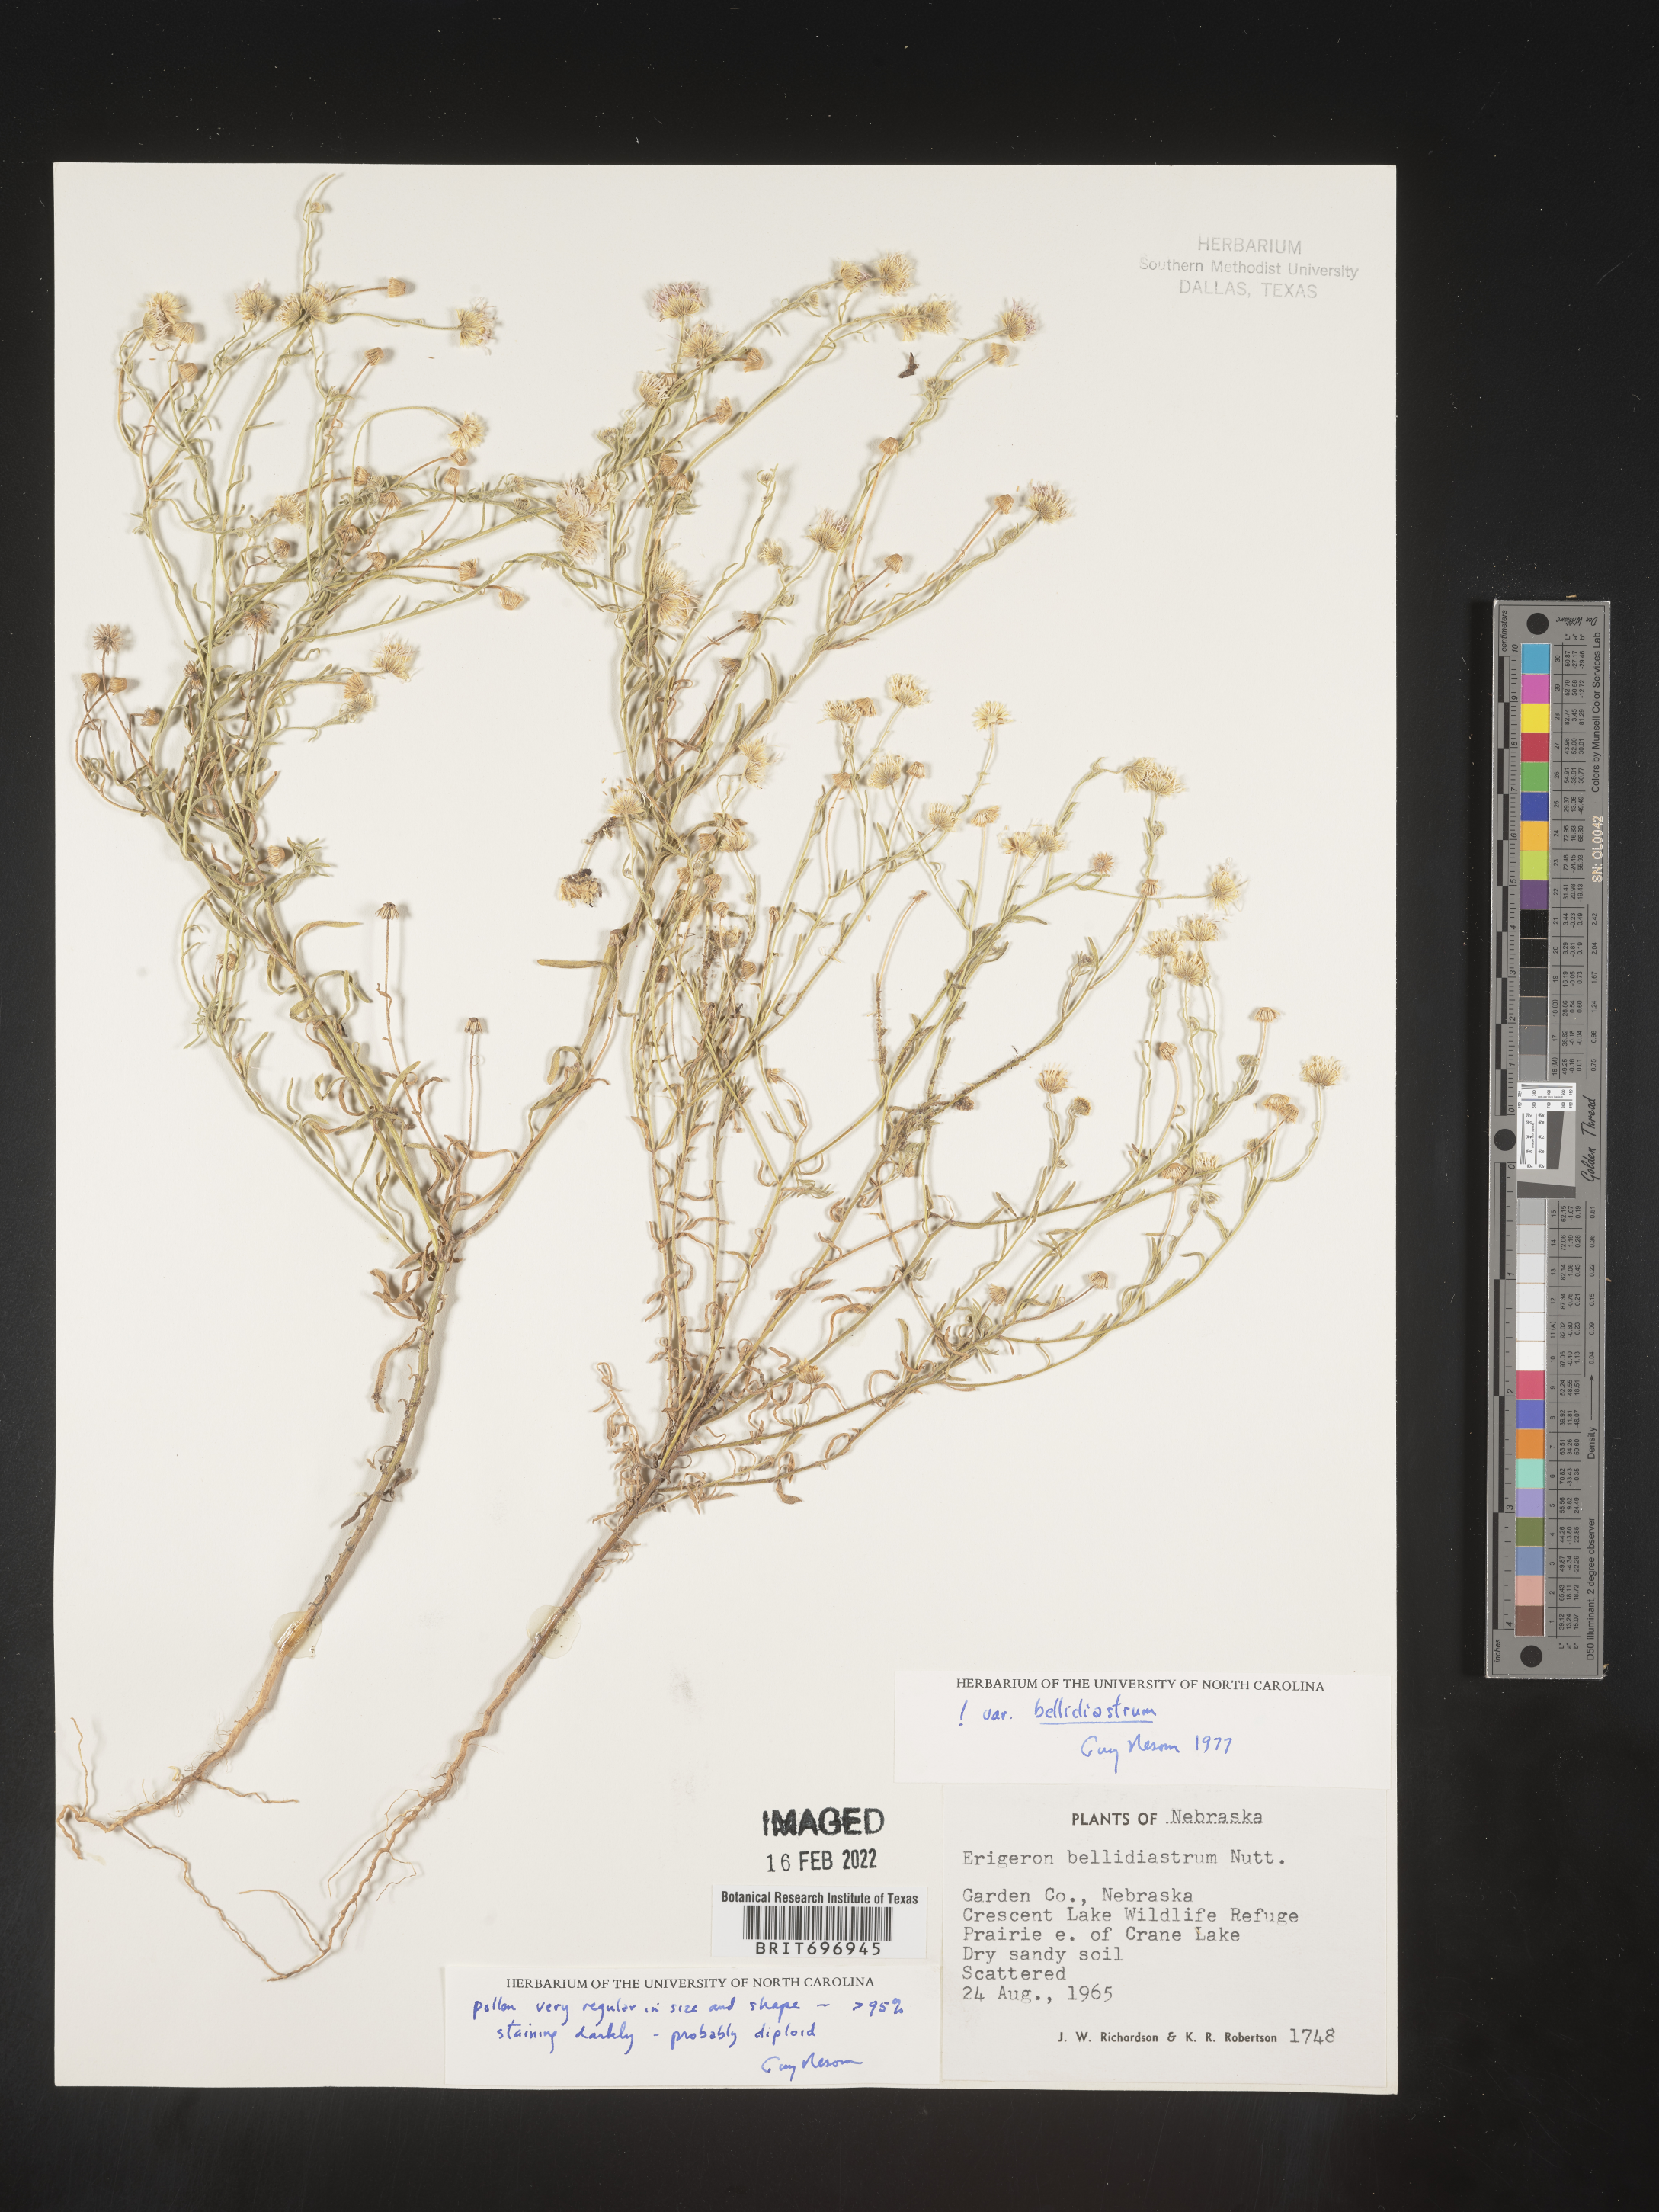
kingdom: Plantae
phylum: Tracheophyta
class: Magnoliopsida
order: Asterales
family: Asteraceae
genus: Erigeron
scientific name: Erigeron bellidiastrum
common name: Sand fleabane
